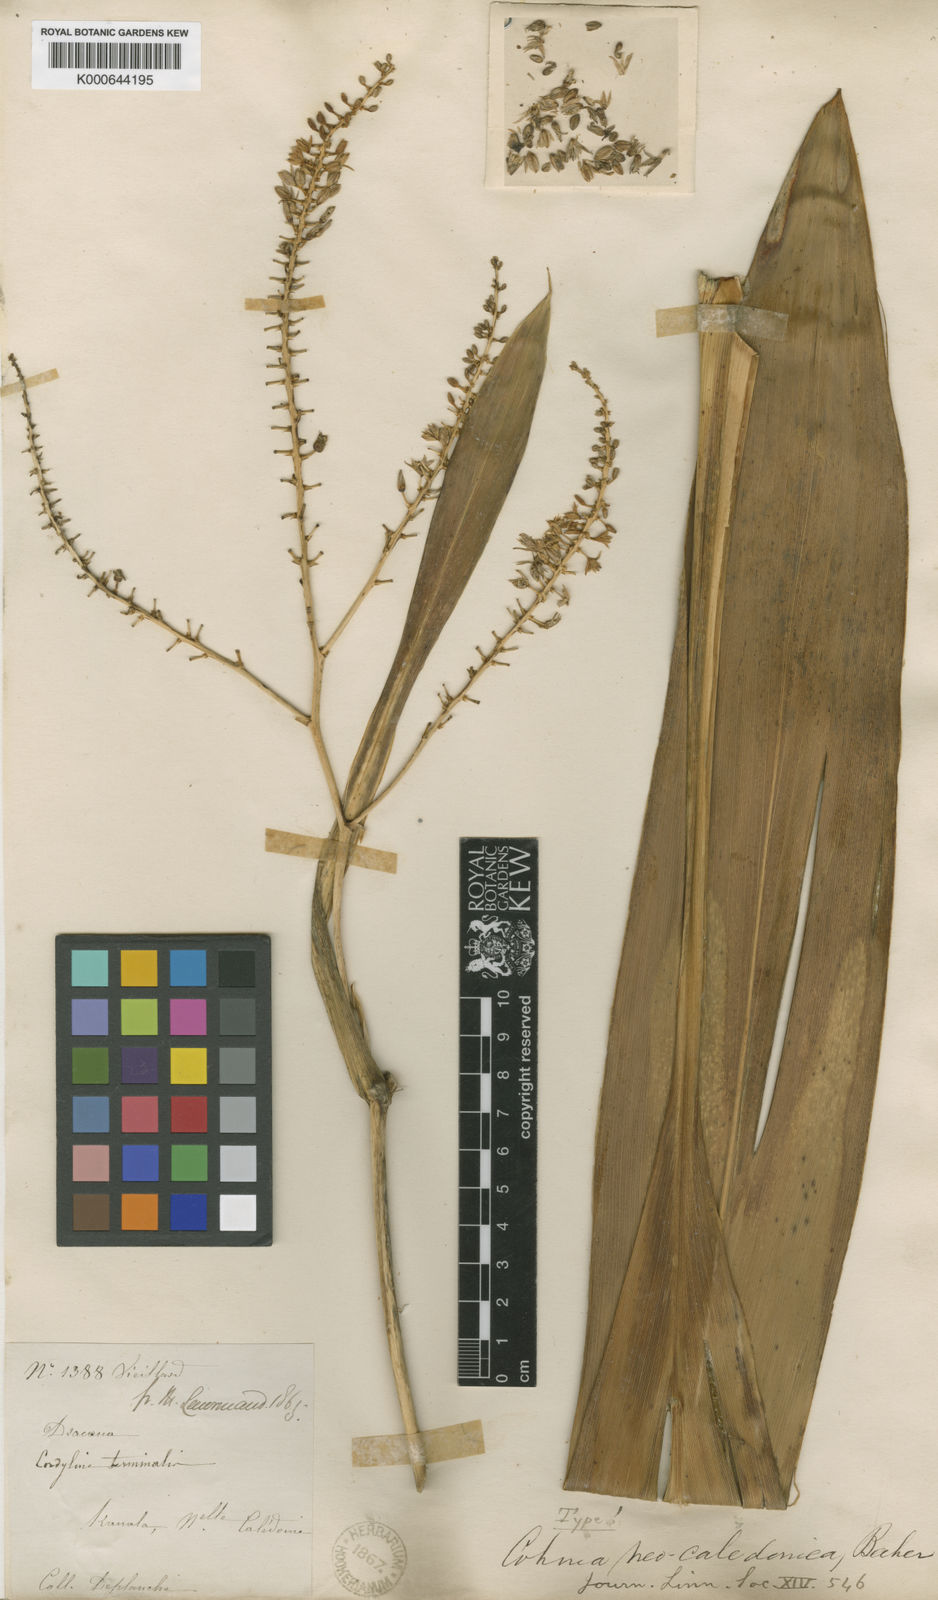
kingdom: Plantae
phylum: Tracheophyta
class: Liliopsida
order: Asparagales
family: Asparagaceae
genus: Cordyline
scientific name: Cordyline neocaledonica
